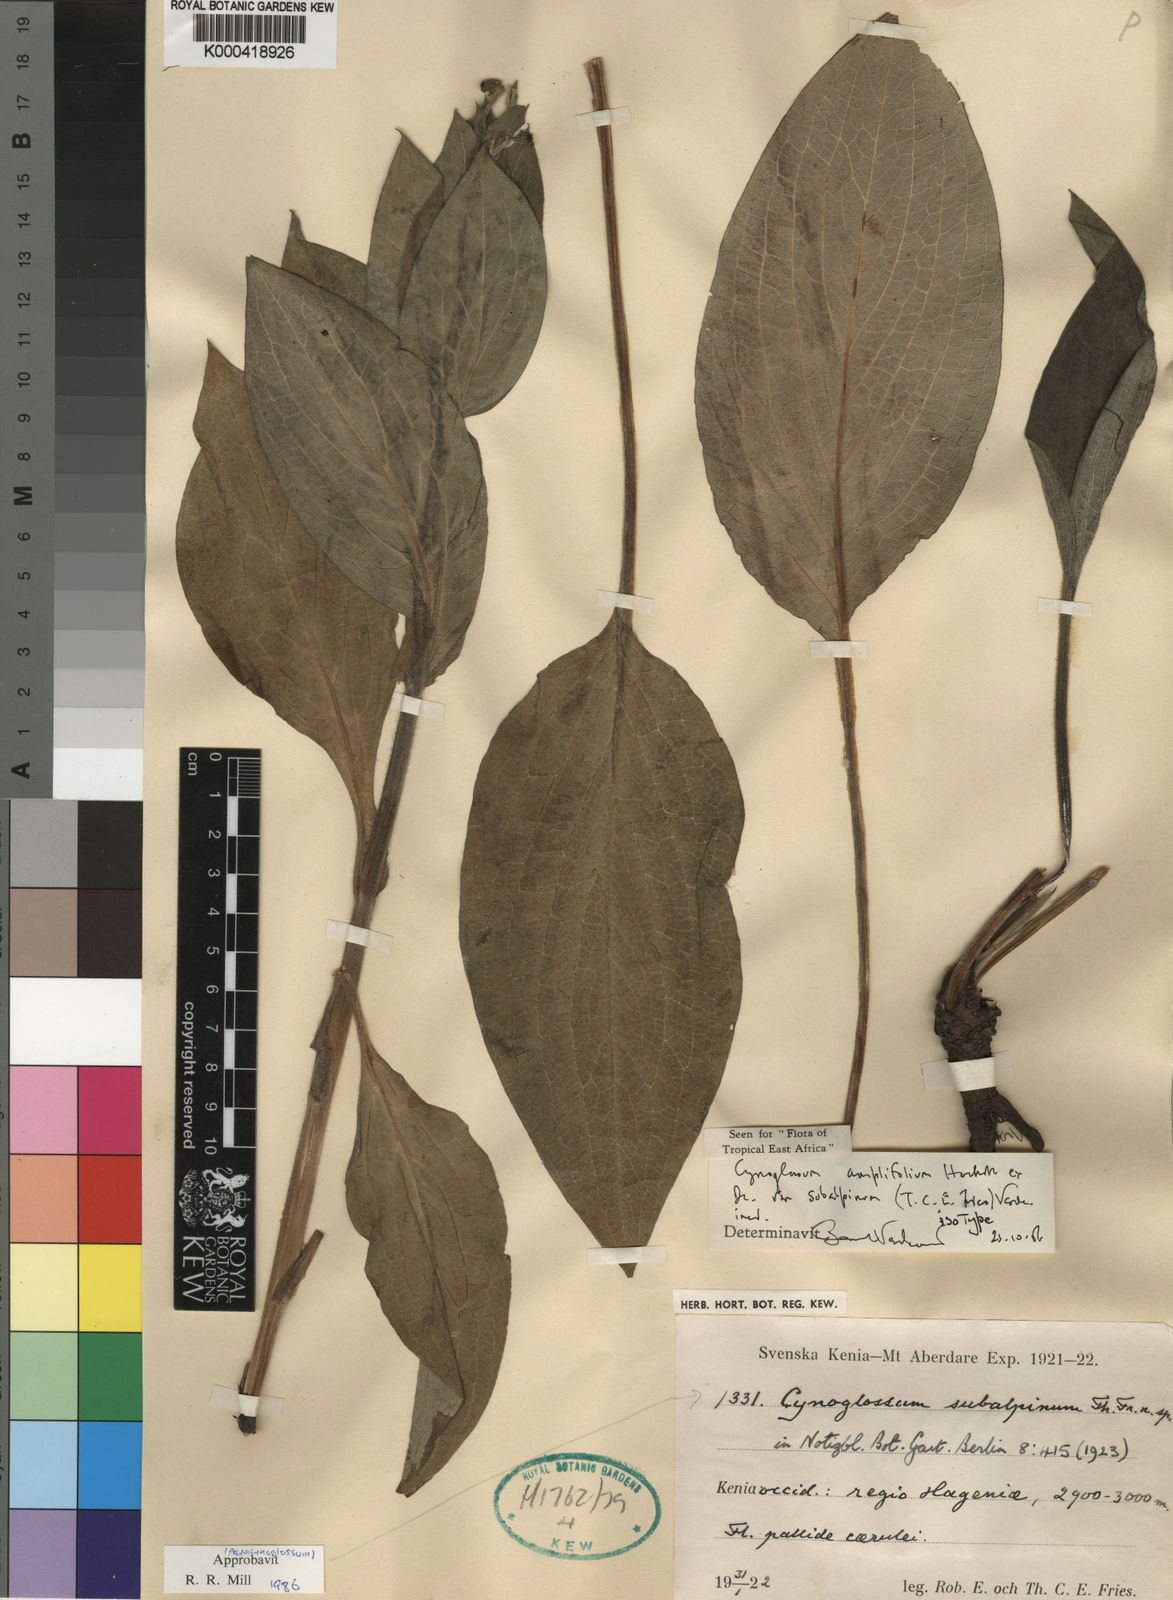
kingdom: Plantae
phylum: Tracheophyta
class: Magnoliopsida
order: Boraginales
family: Boraginaceae
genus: Cynoglossum
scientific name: Cynoglossum amplifolium
